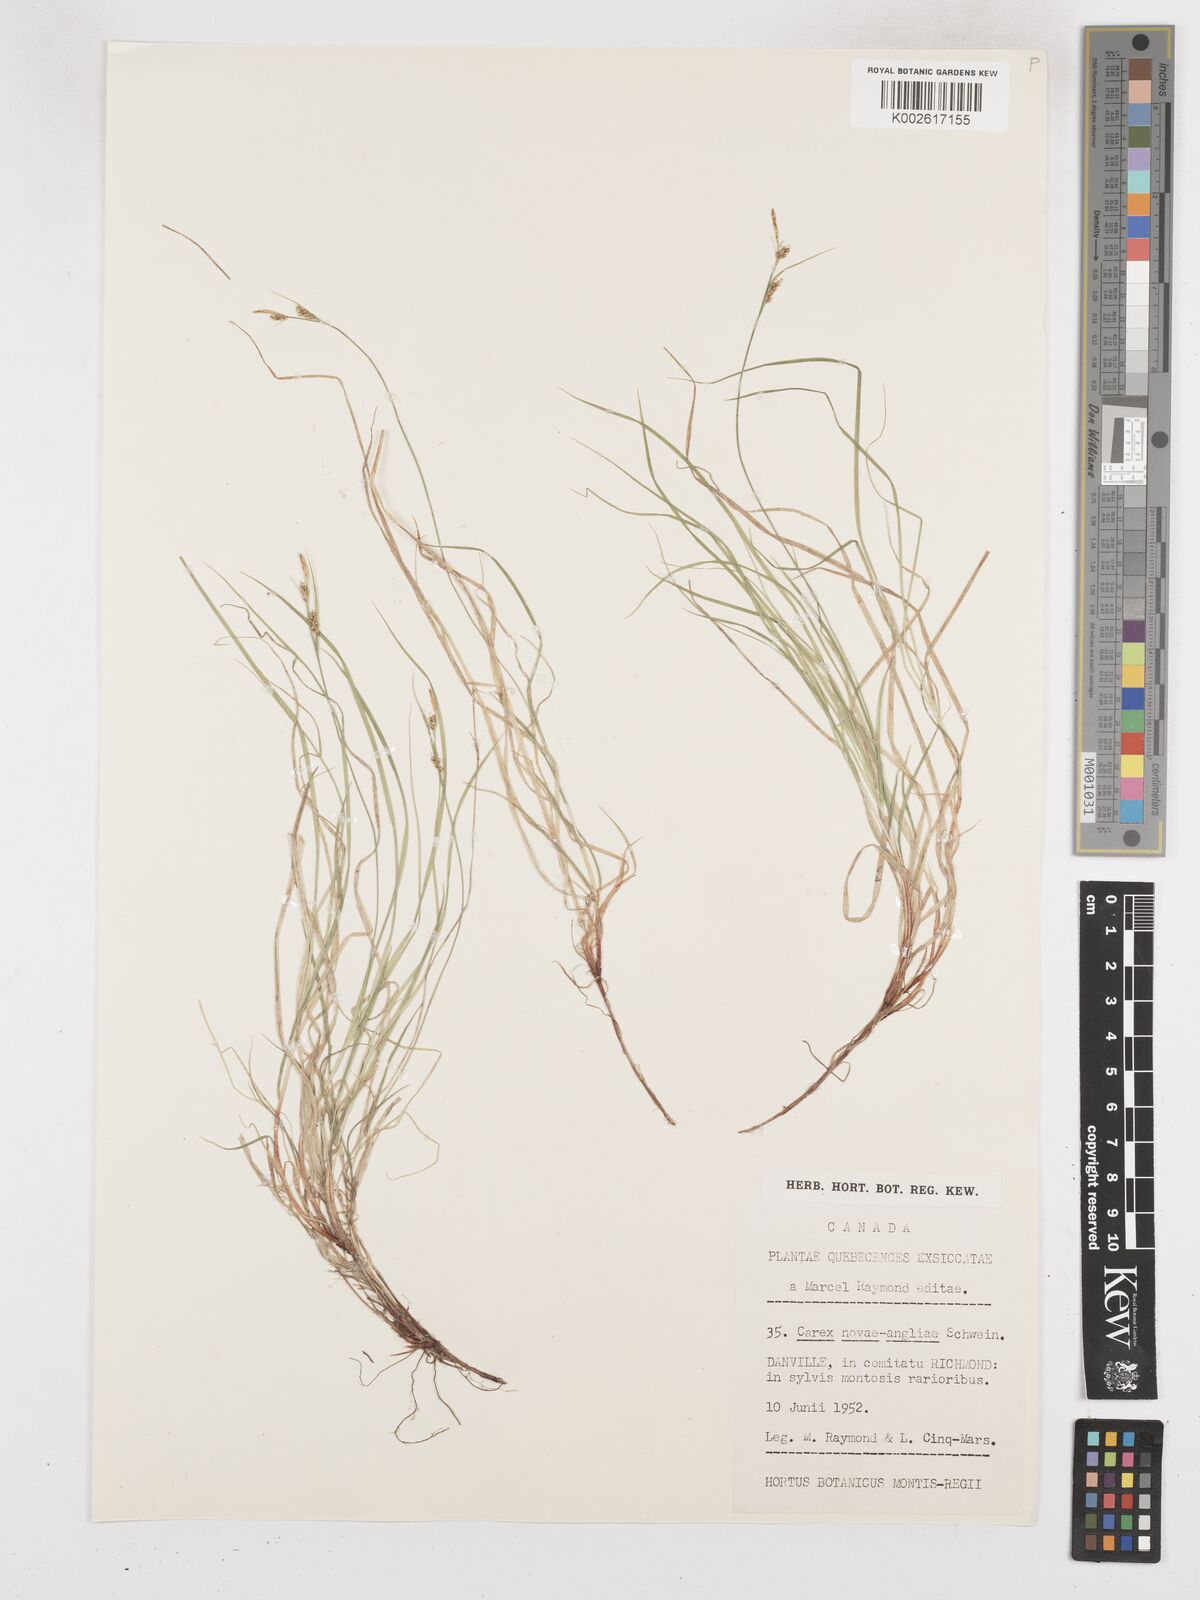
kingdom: Plantae
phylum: Tracheophyta
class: Liliopsida
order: Poales
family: Cyperaceae
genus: Carex
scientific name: Carex novae-angliae
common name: New england sedge
